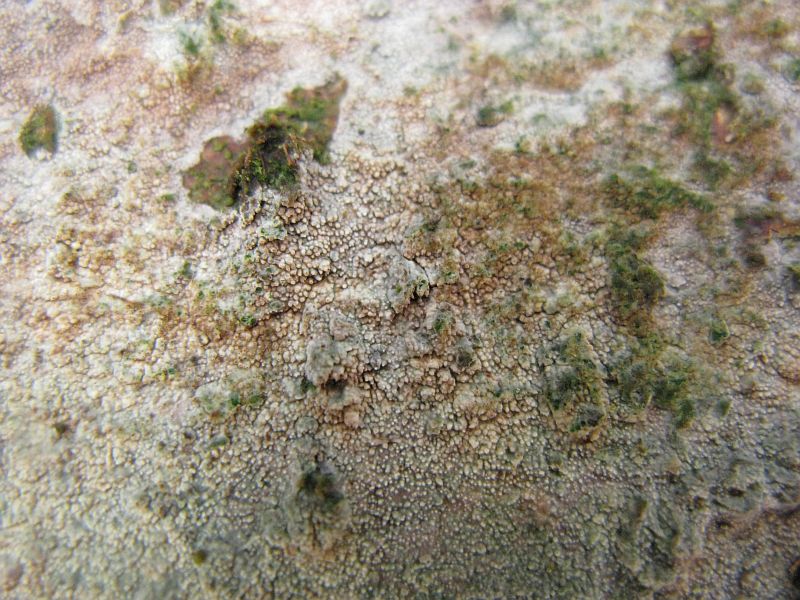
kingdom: Fungi
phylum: Basidiomycota
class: Agaricomycetes
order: Hymenochaetales
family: Rickenellaceae
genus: Resinicium
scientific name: Resinicium bicolor
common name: almindelig vokstand
